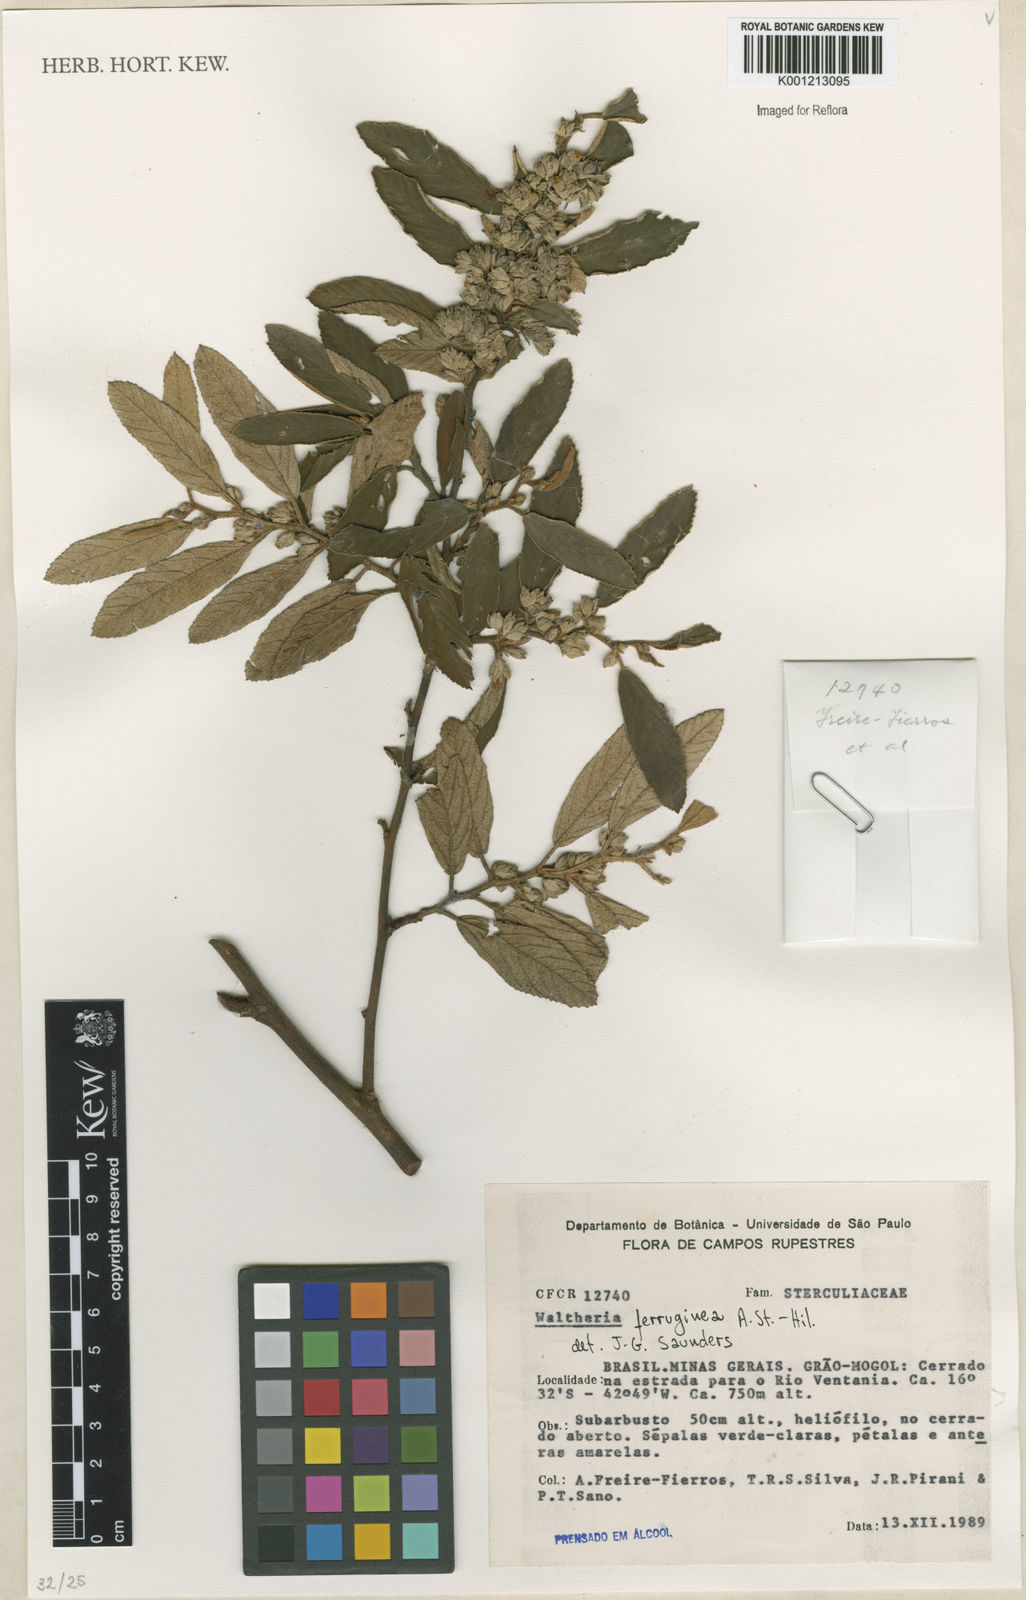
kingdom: Plantae
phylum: Tracheophyta
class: Magnoliopsida
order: Malvales
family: Malvaceae
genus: Waltheria
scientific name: Waltheria ferruginea
